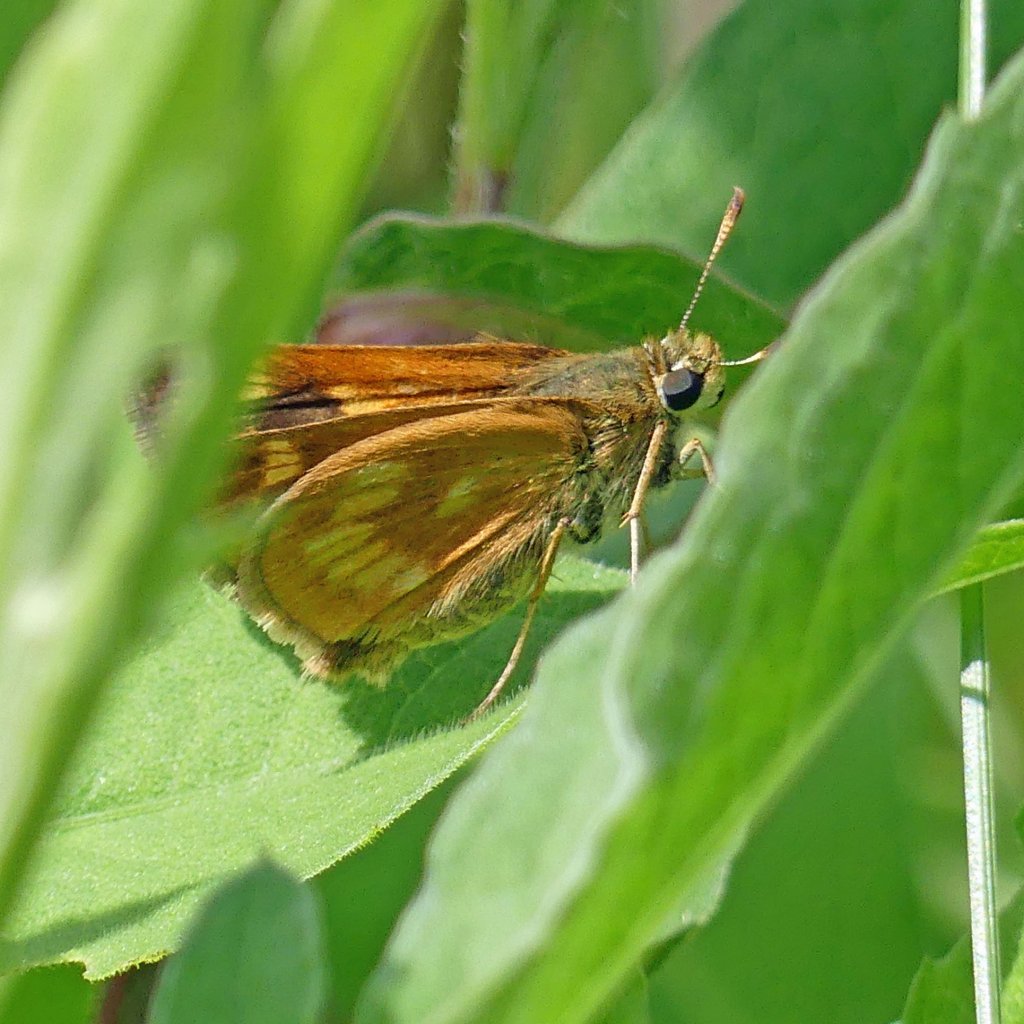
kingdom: Animalia
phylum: Arthropoda
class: Insecta
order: Lepidoptera
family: Hesperiidae
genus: Polites
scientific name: Polites
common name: Long Dash Skipper
